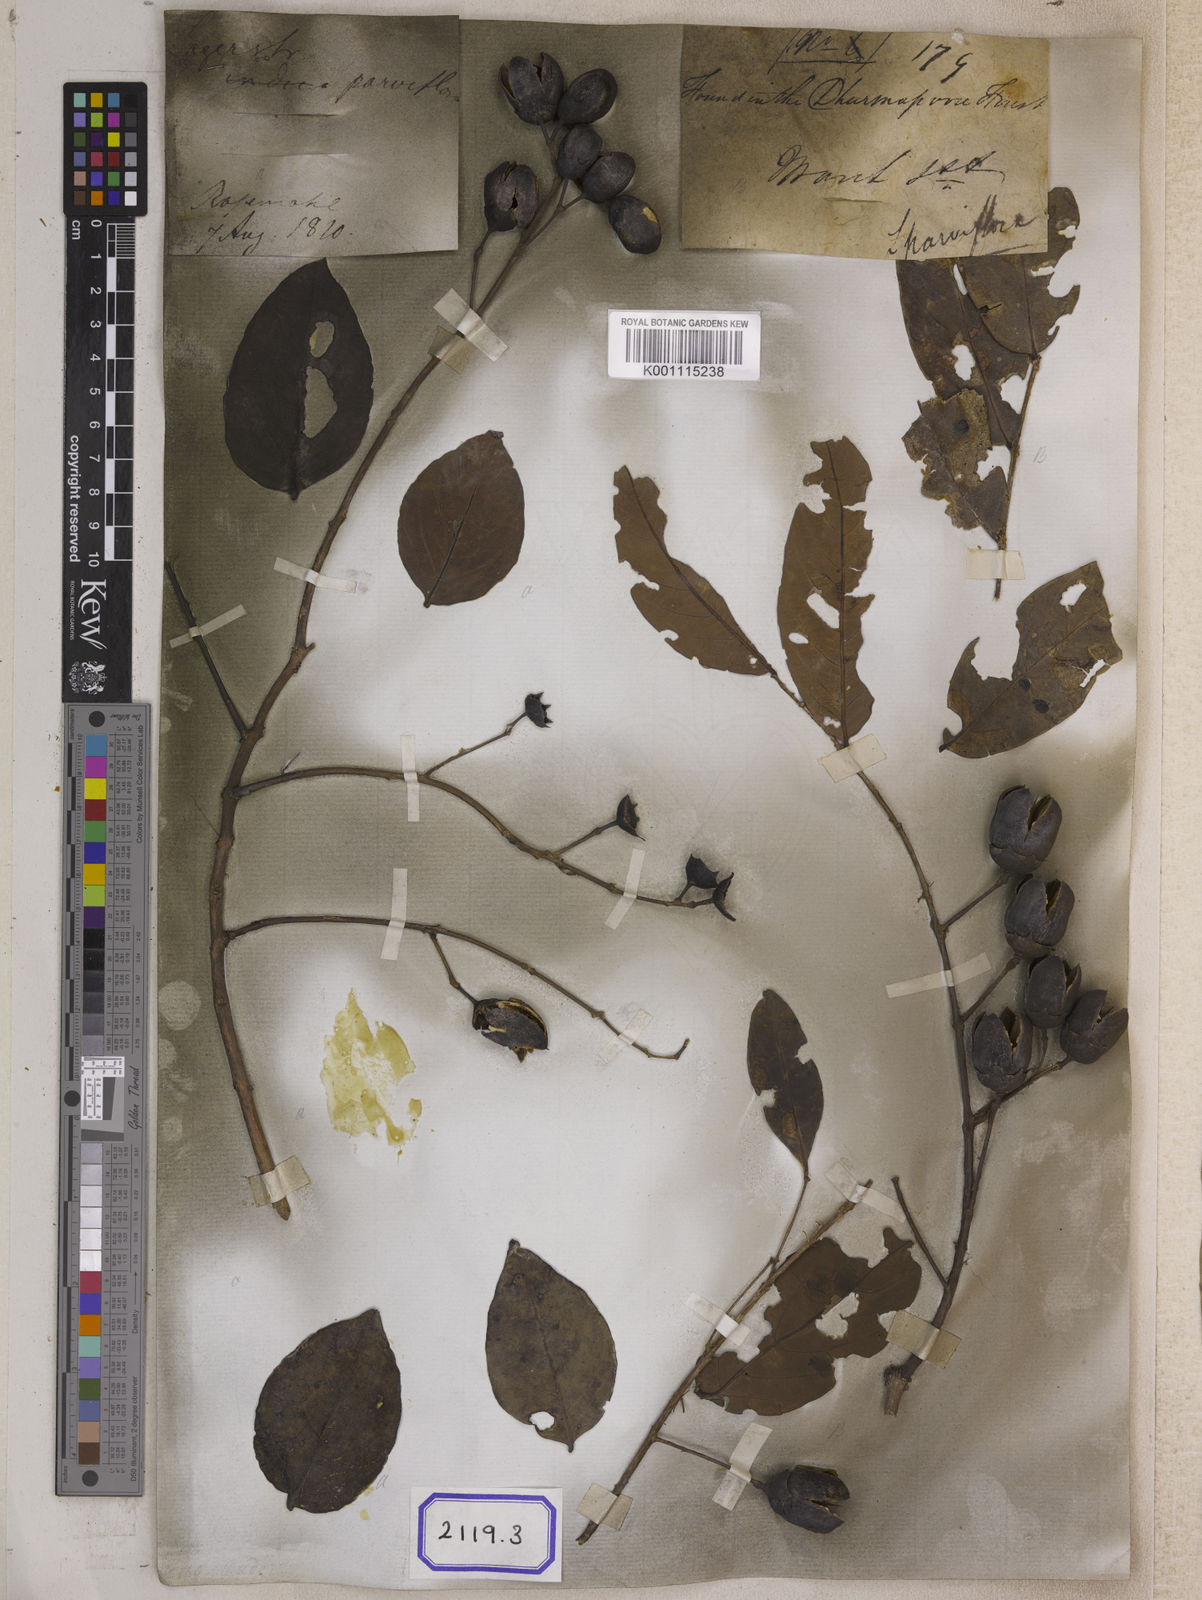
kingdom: Plantae
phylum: Tracheophyta
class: Magnoliopsida
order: Myrtales
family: Lythraceae
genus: Lagerstroemia
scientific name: Lagerstroemia parviflora
